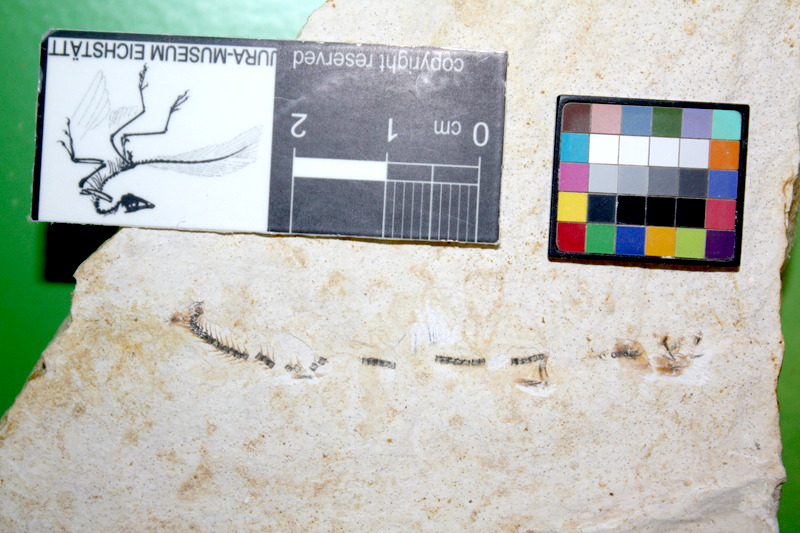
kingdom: Animalia
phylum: Chordata
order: Salmoniformes
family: Orthogonikleithridae
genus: Orthogonikleithrus
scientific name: Orthogonikleithrus hoelli
